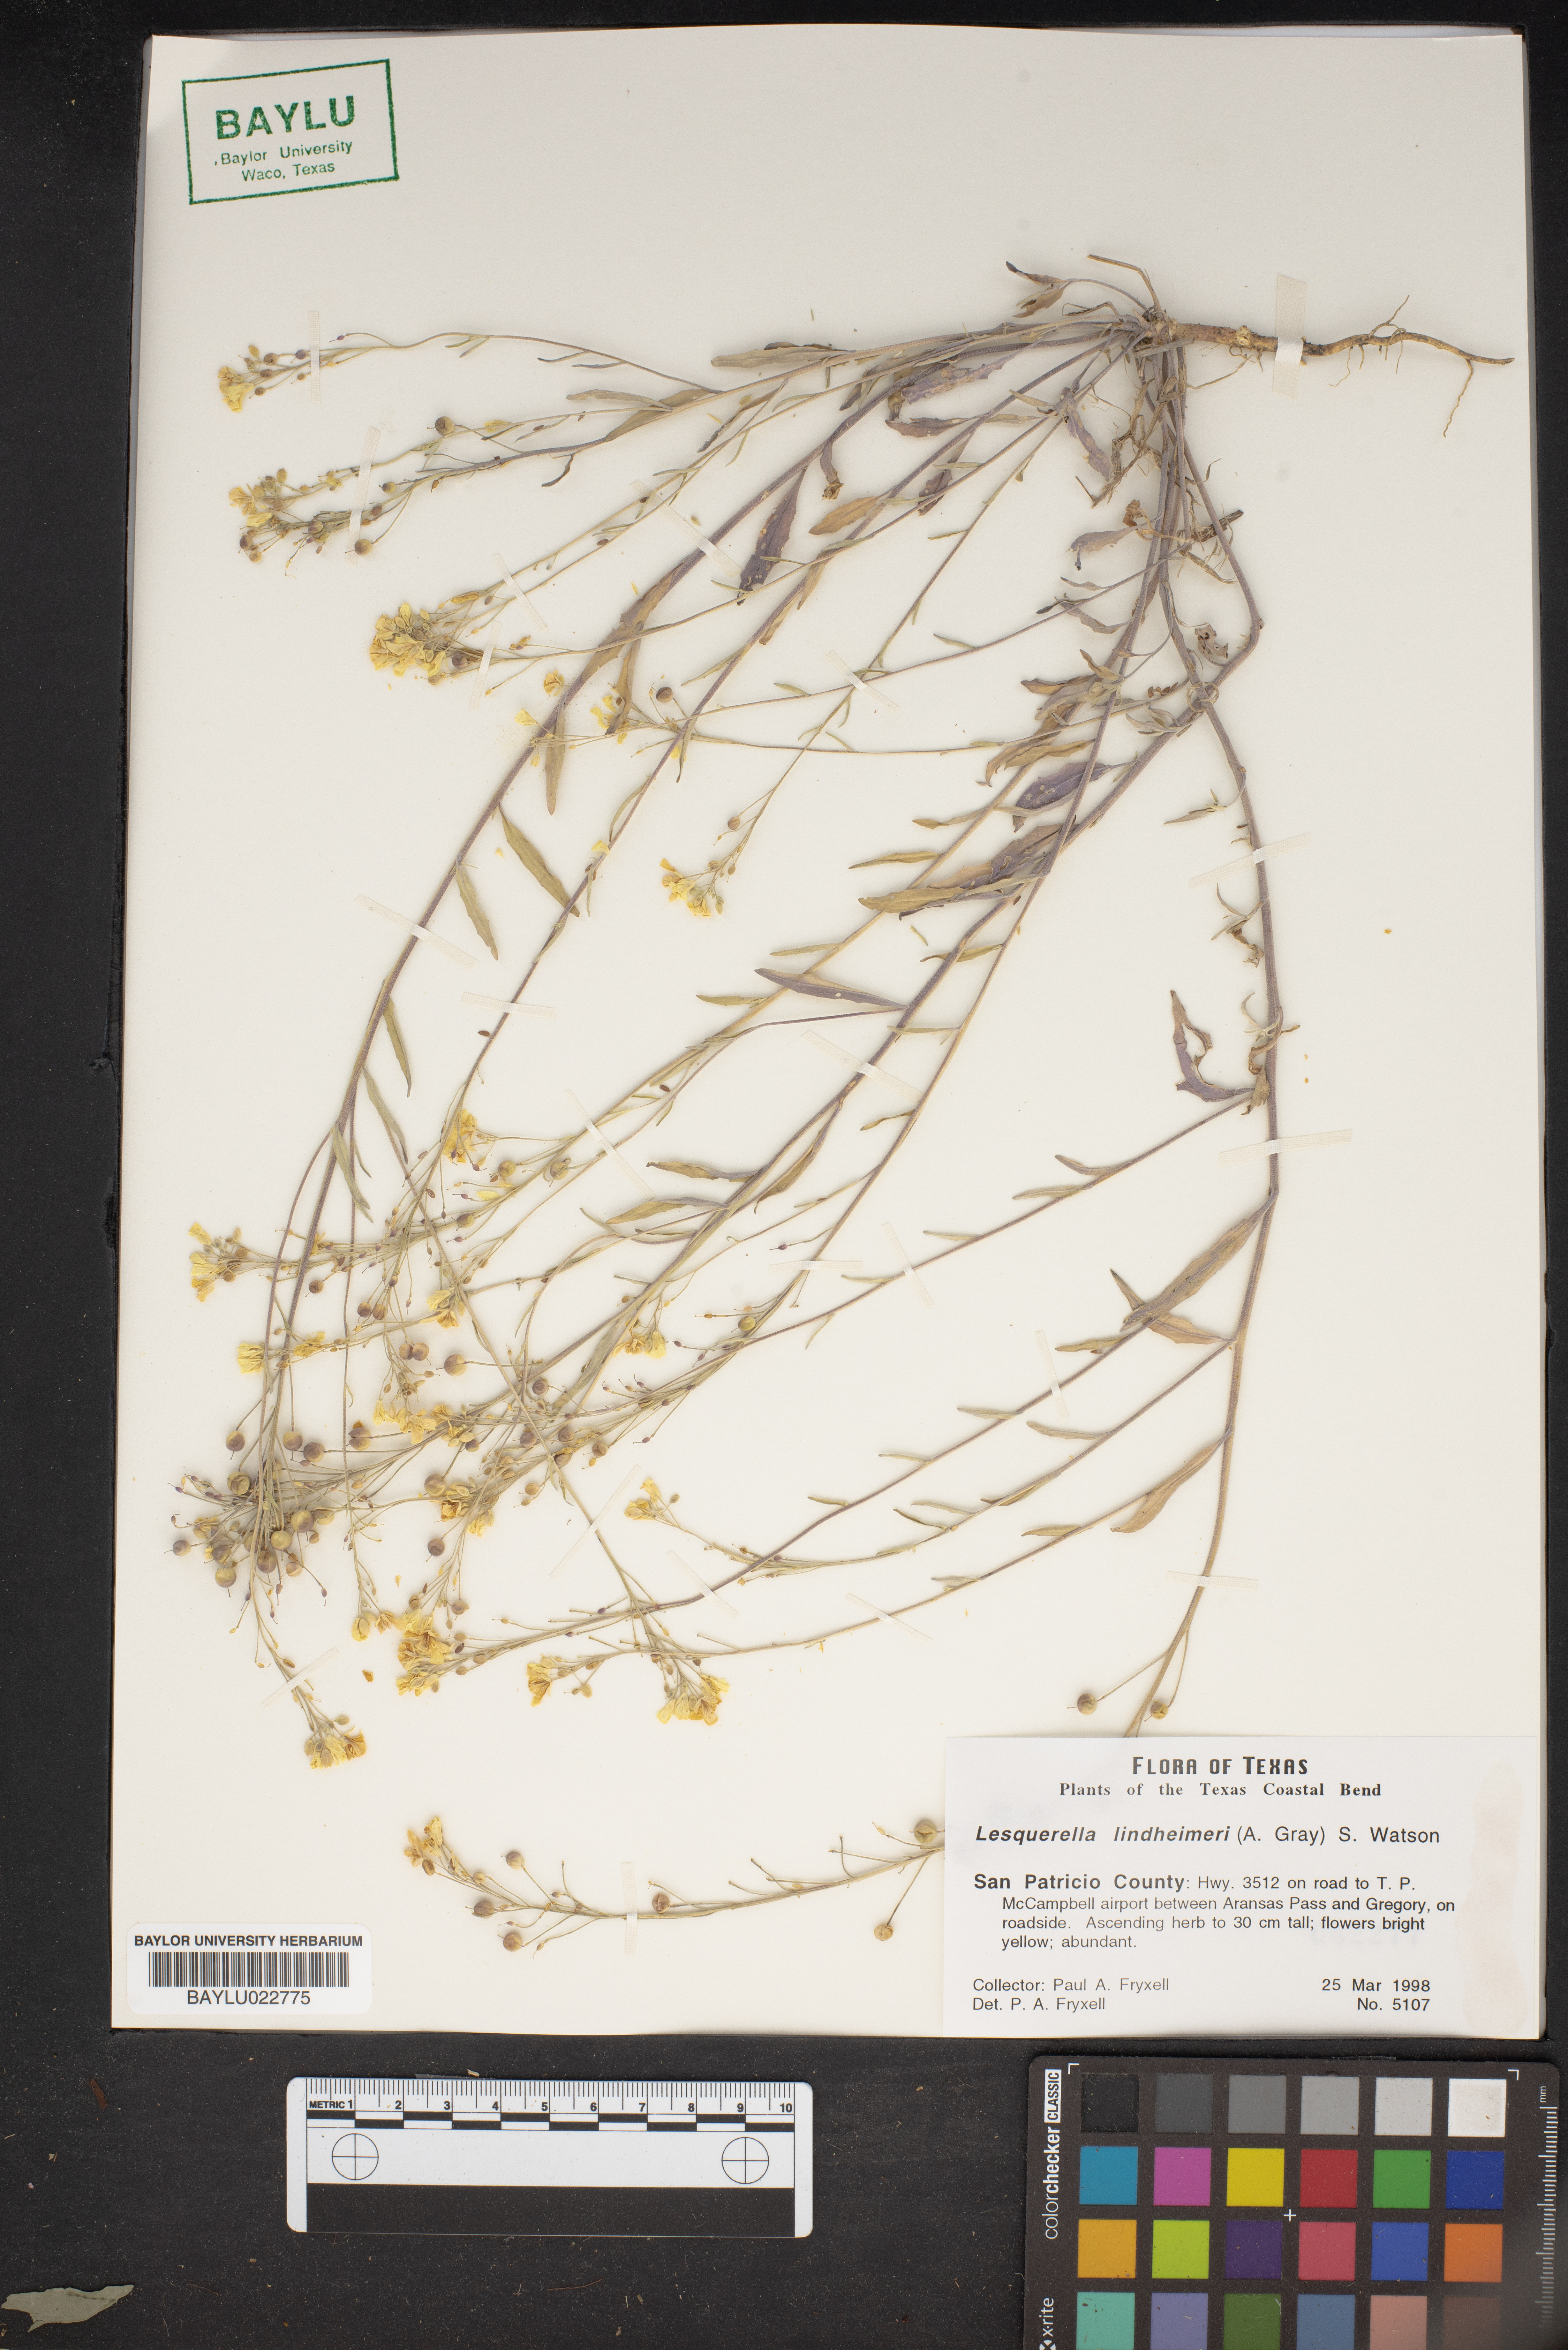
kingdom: Plantae
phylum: Tracheophyta
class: Magnoliopsida
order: Brassicales
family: Brassicaceae
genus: Physaria
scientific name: Physaria lindheimeri
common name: Lindheimer's bladderpod
